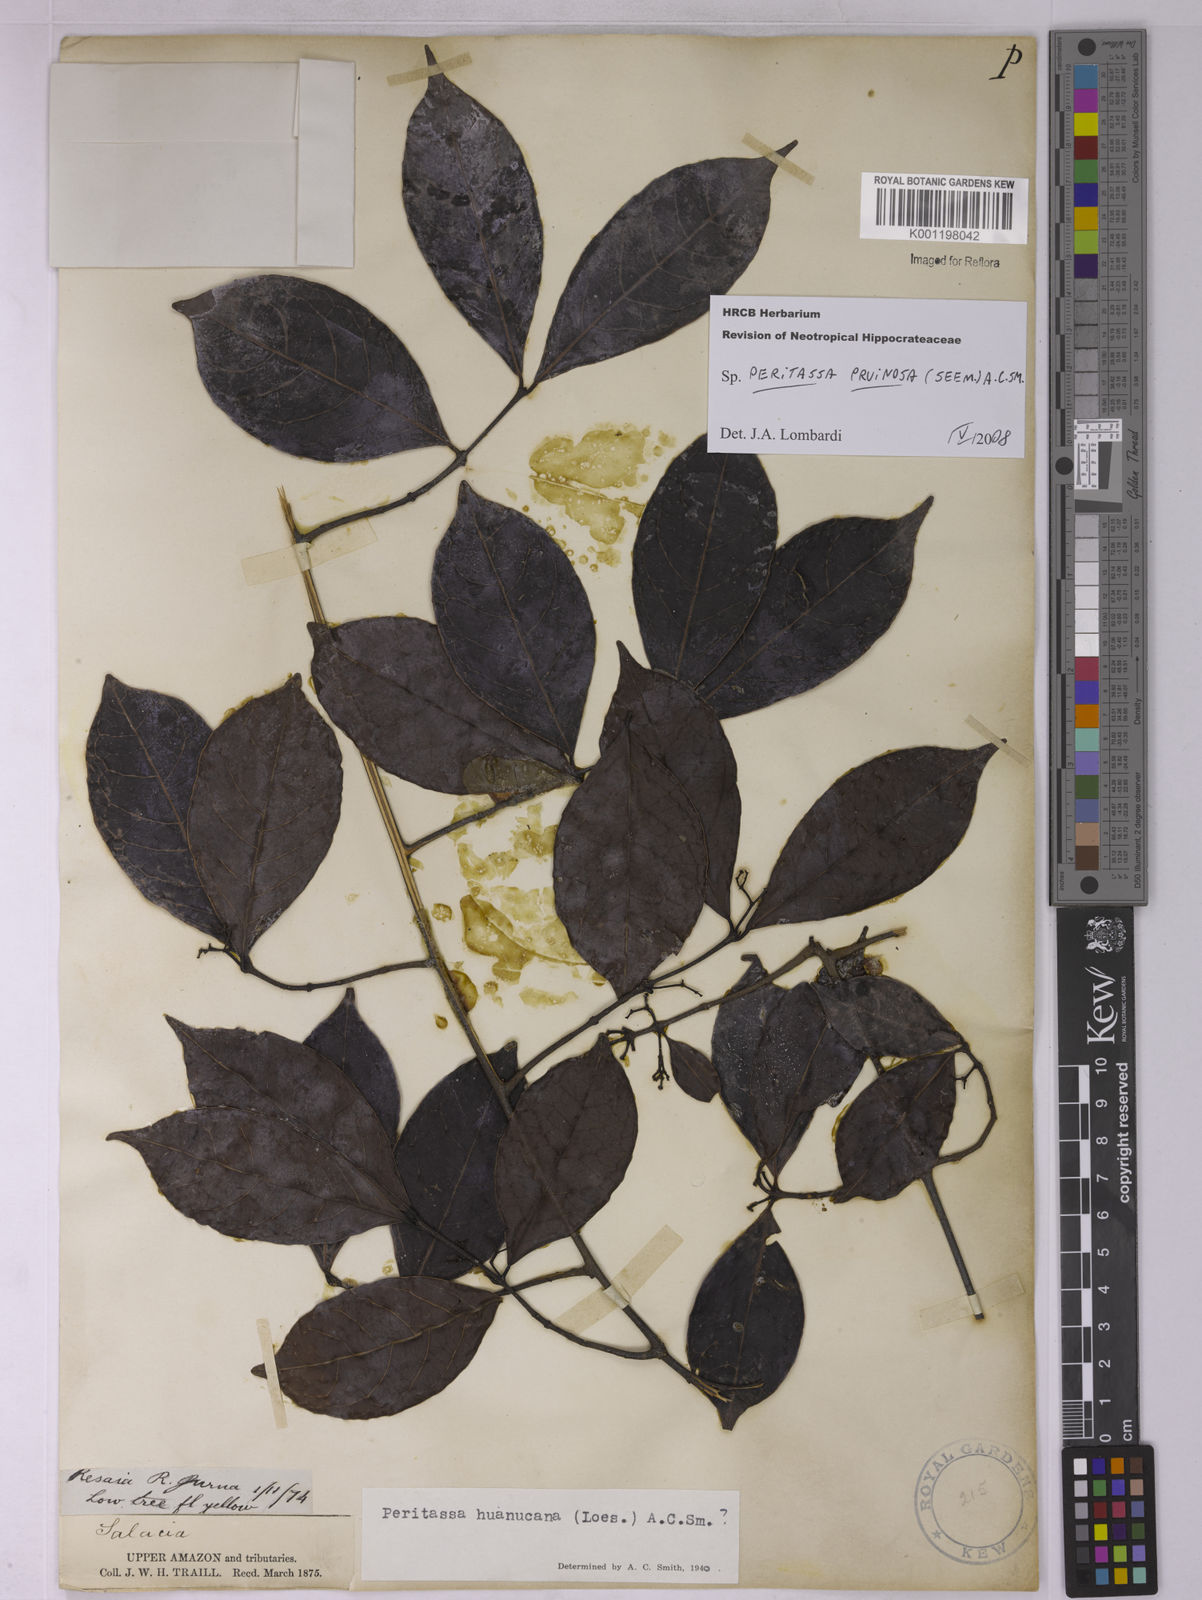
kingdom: Plantae
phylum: Tracheophyta
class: Magnoliopsida
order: Celastrales
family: Celastraceae
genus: Peritassa
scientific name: Peritassa pruinosa
